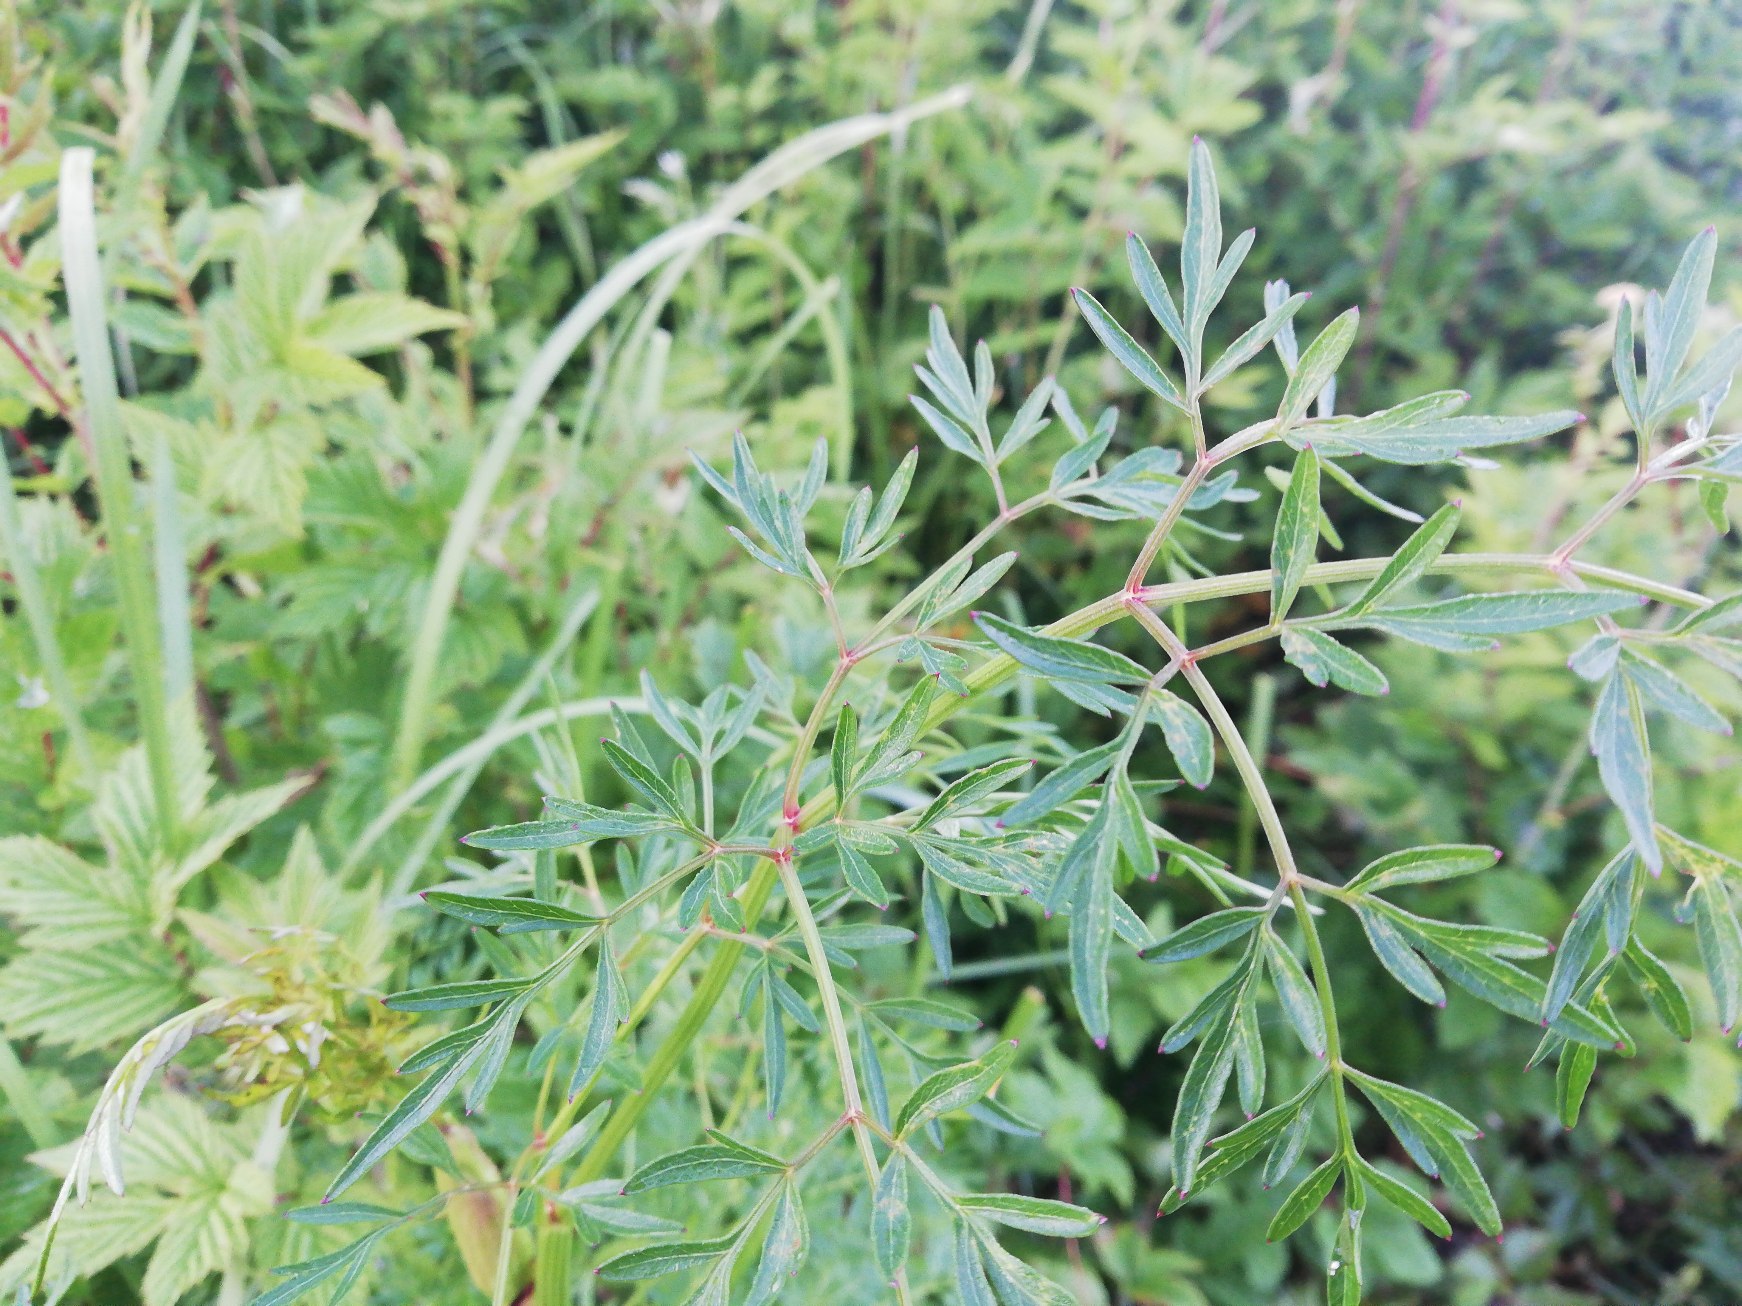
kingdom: Plantae
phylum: Tracheophyta
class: Magnoliopsida
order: Apiales
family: Apiaceae
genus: Thysselinum
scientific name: Thysselinum palustre
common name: Kær-svovlrod
